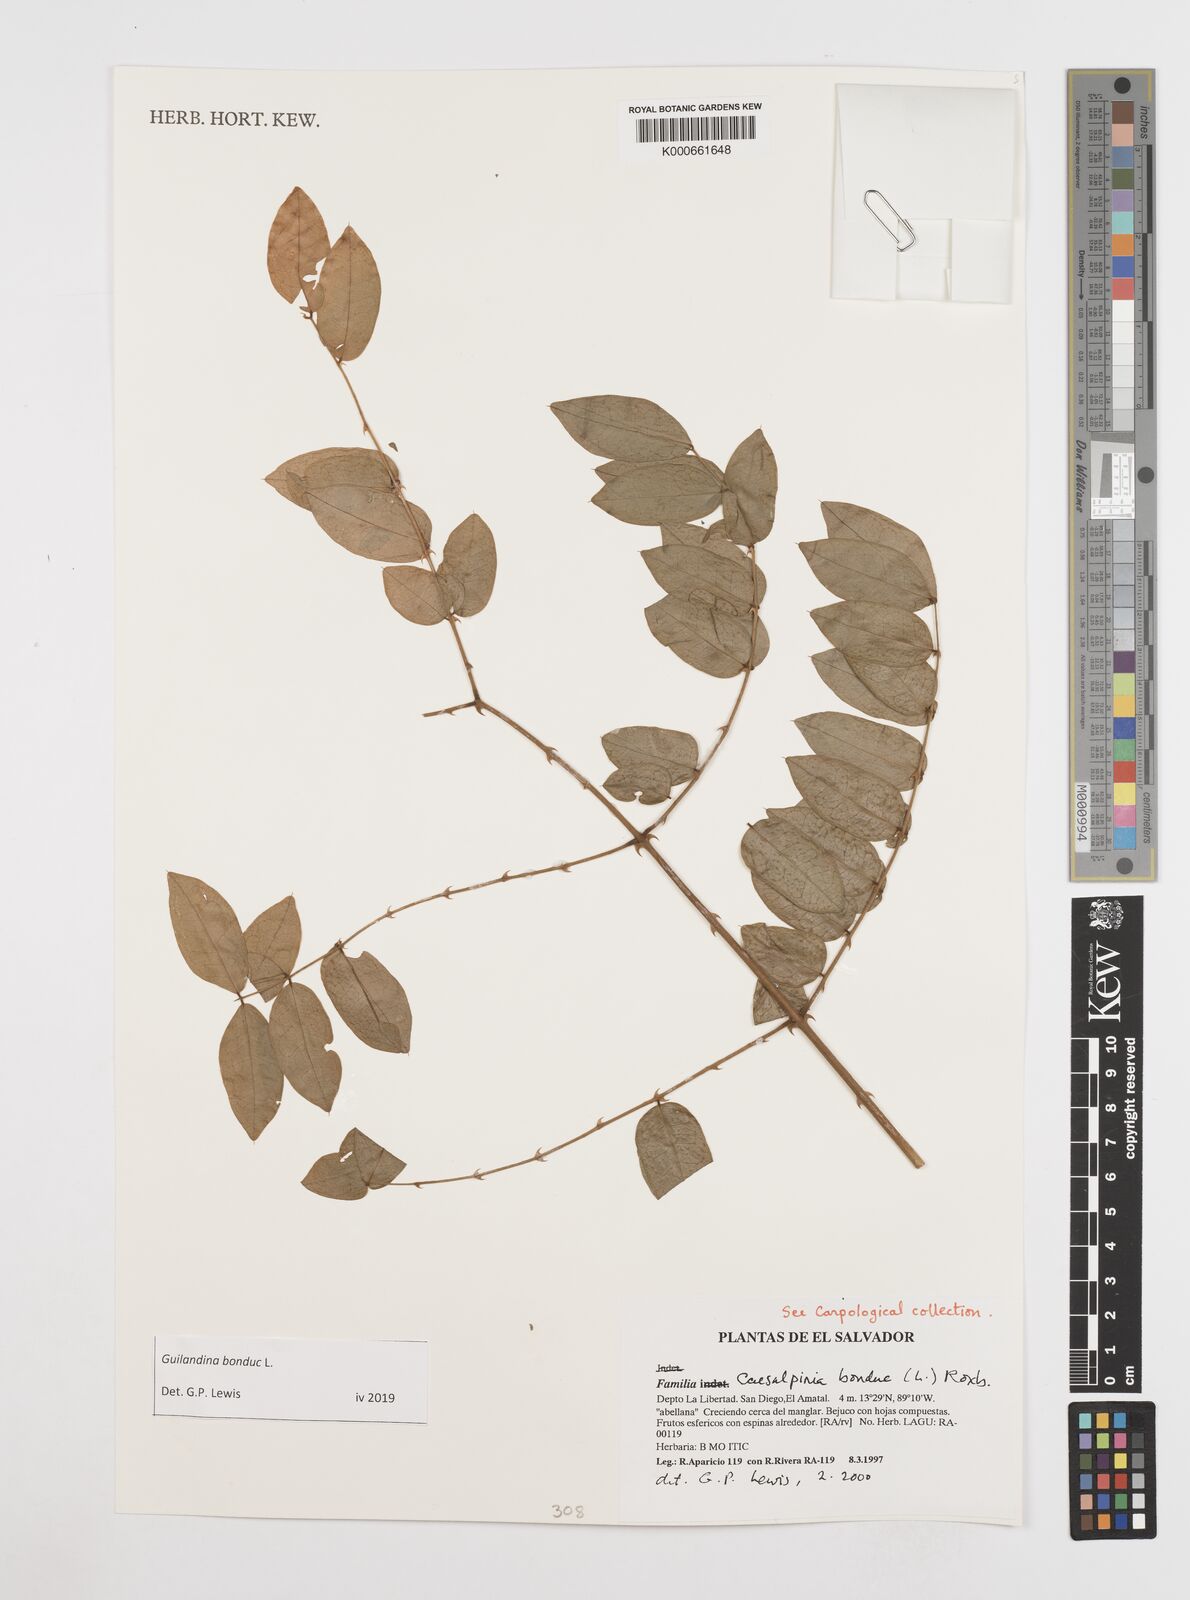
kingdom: Plantae
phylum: Tracheophyta
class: Magnoliopsida
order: Fabales
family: Fabaceae
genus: Guilandina
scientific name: Guilandina bonduc
